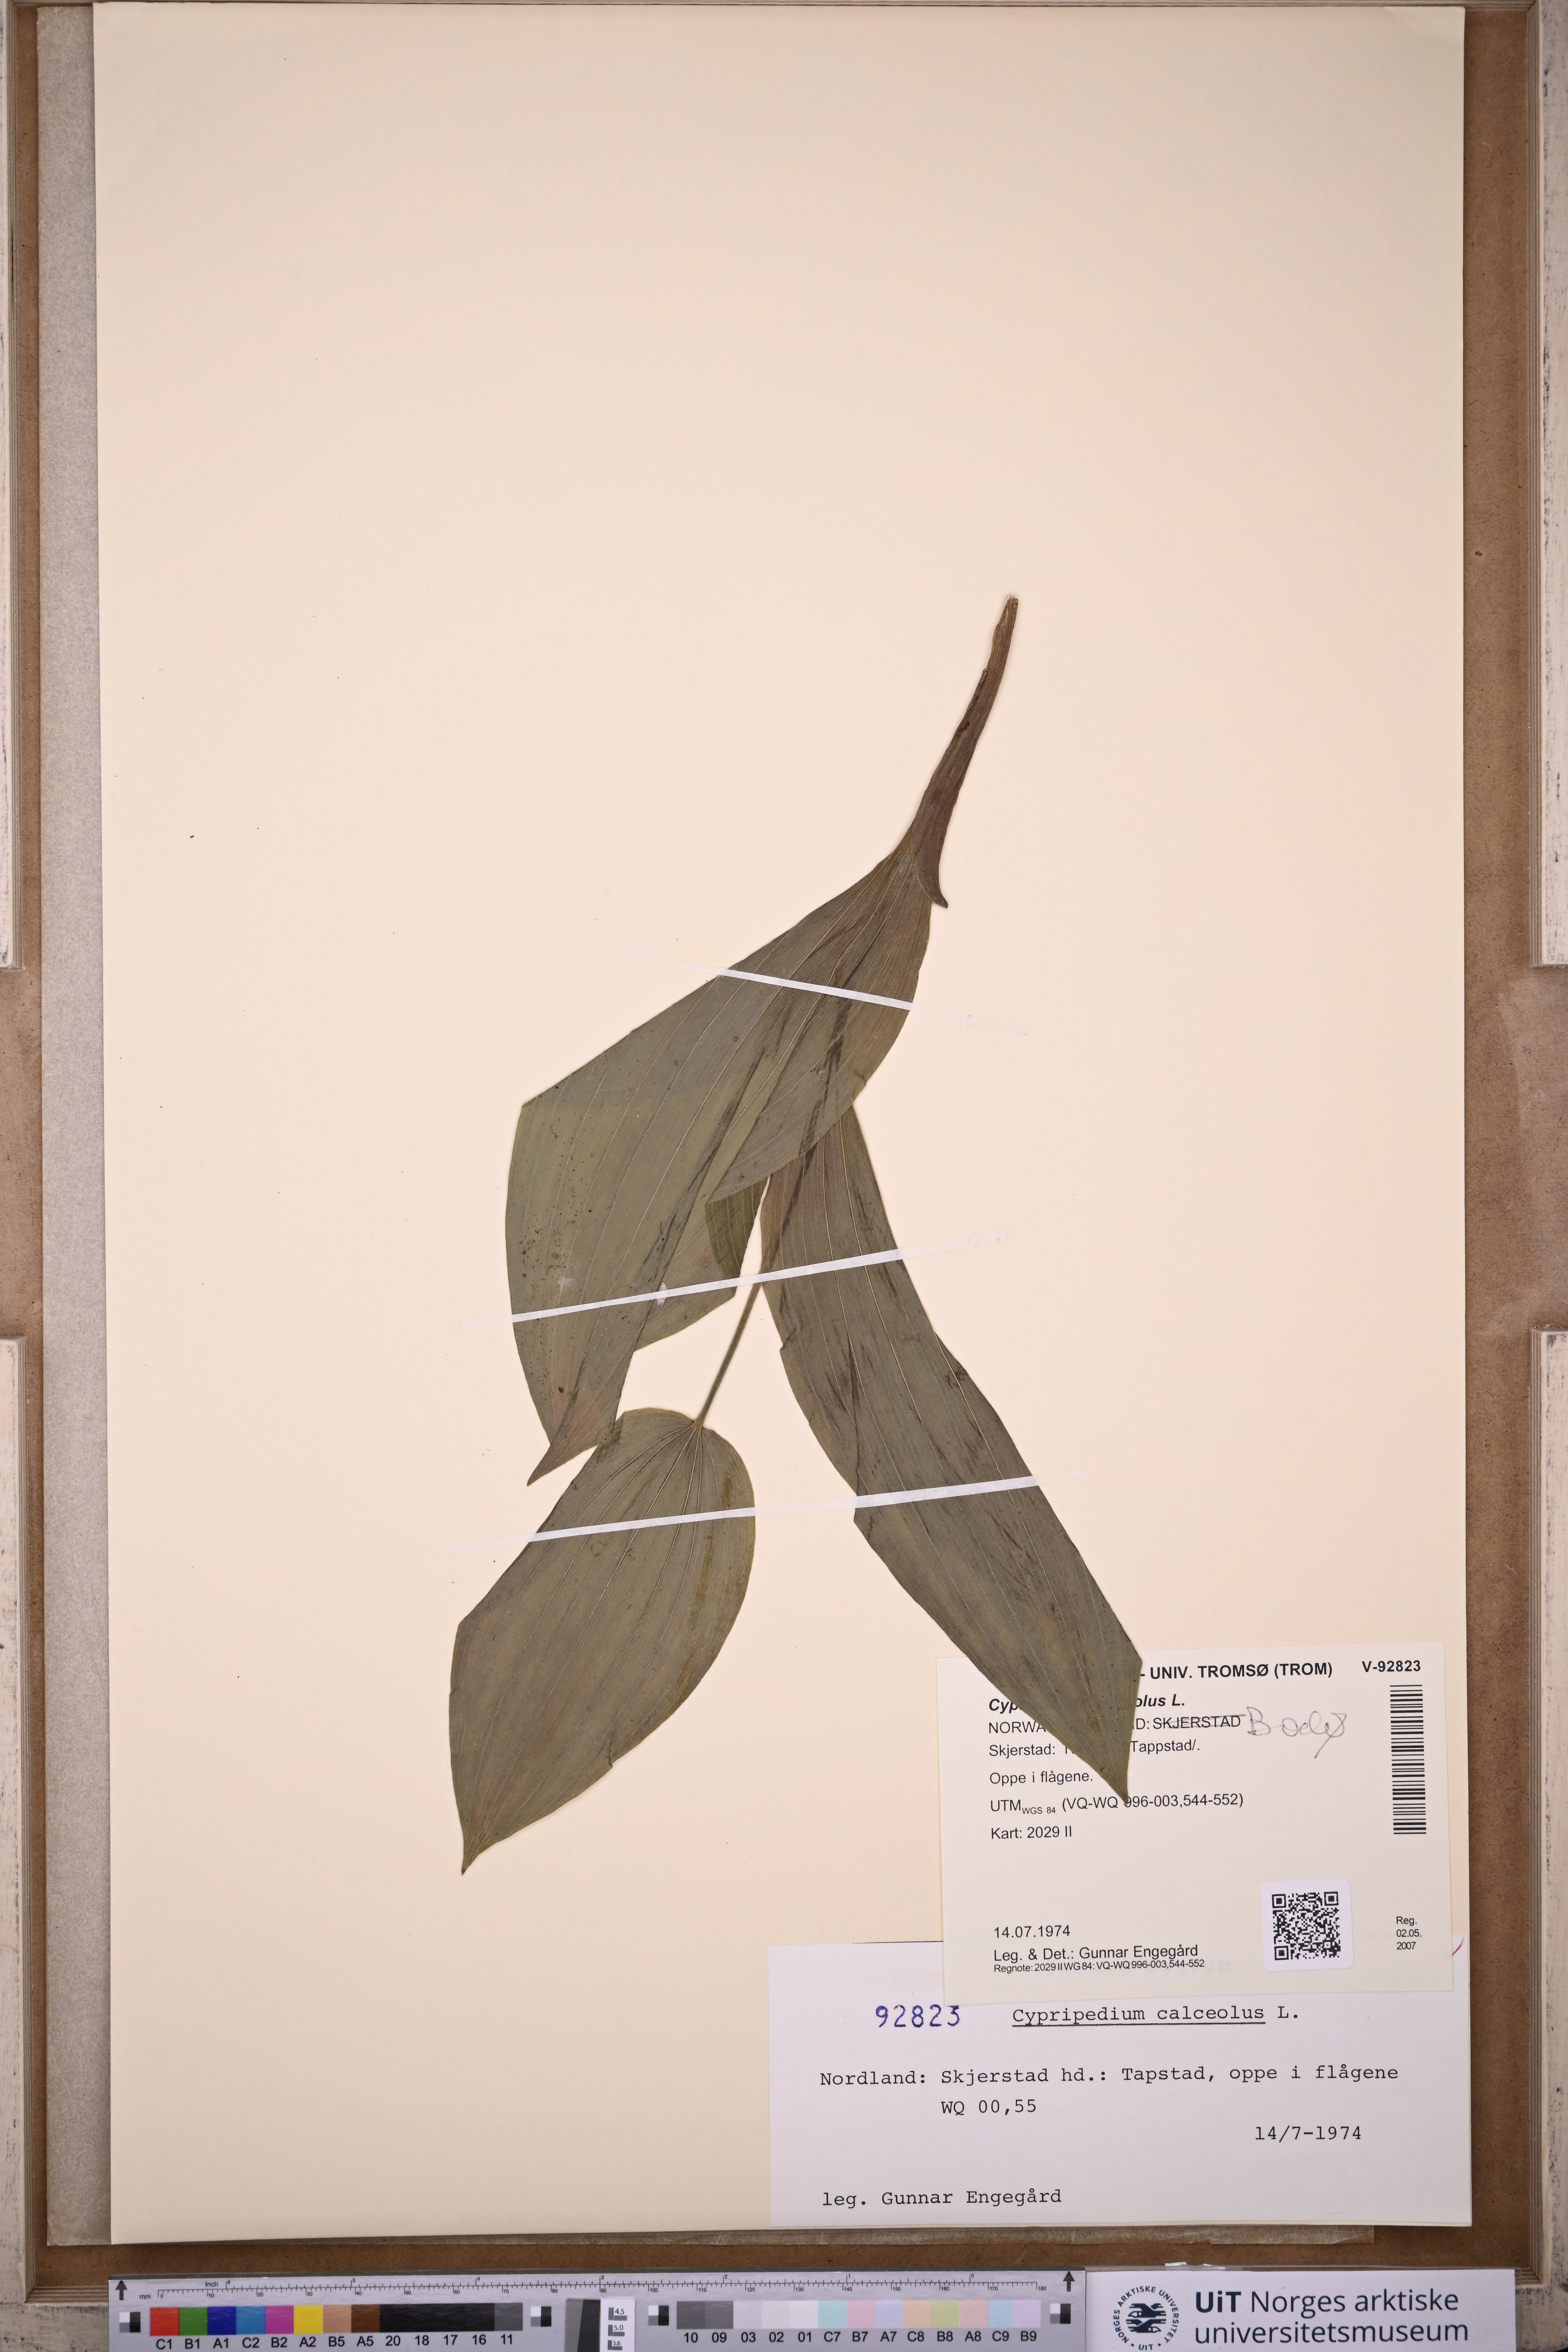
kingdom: Plantae
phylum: Tracheophyta
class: Liliopsida
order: Asparagales
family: Orchidaceae
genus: Cypripedium
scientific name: Cypripedium calceolus
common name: Lady's-slipper
